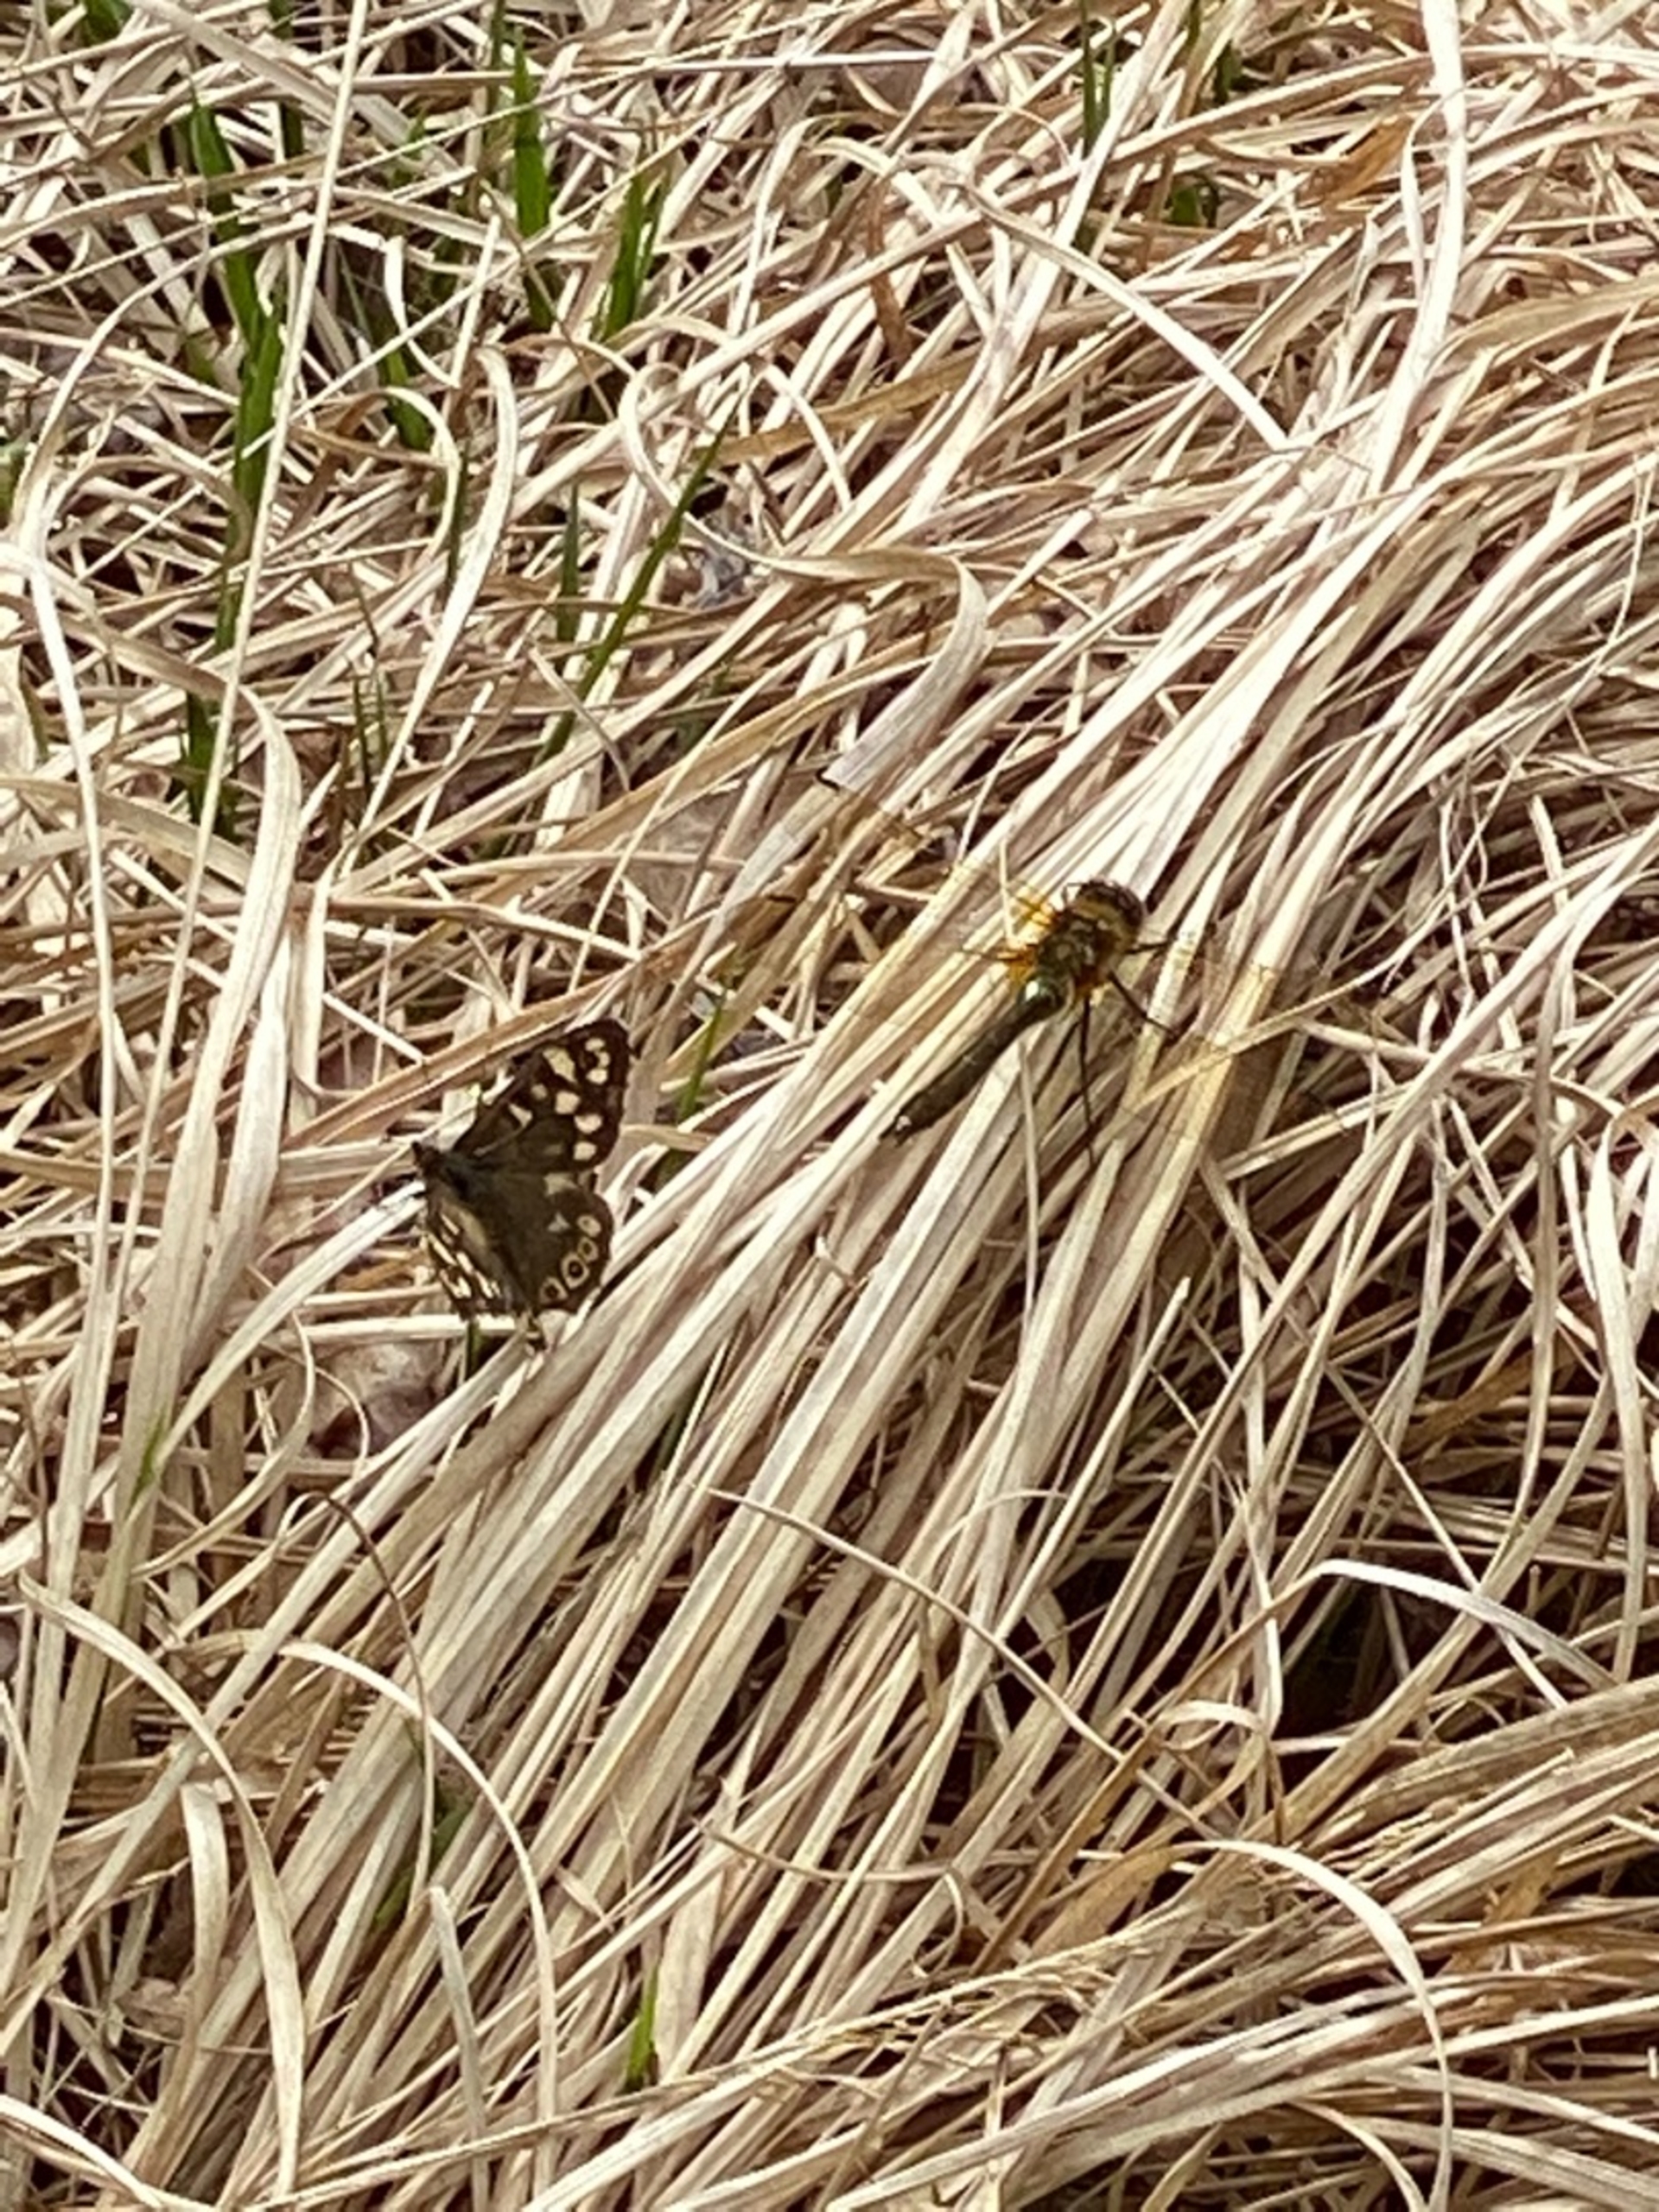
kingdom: Animalia
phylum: Arthropoda
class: Insecta
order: Lepidoptera
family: Nymphalidae
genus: Pararge
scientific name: Pararge aegeria
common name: Skovrandøje
